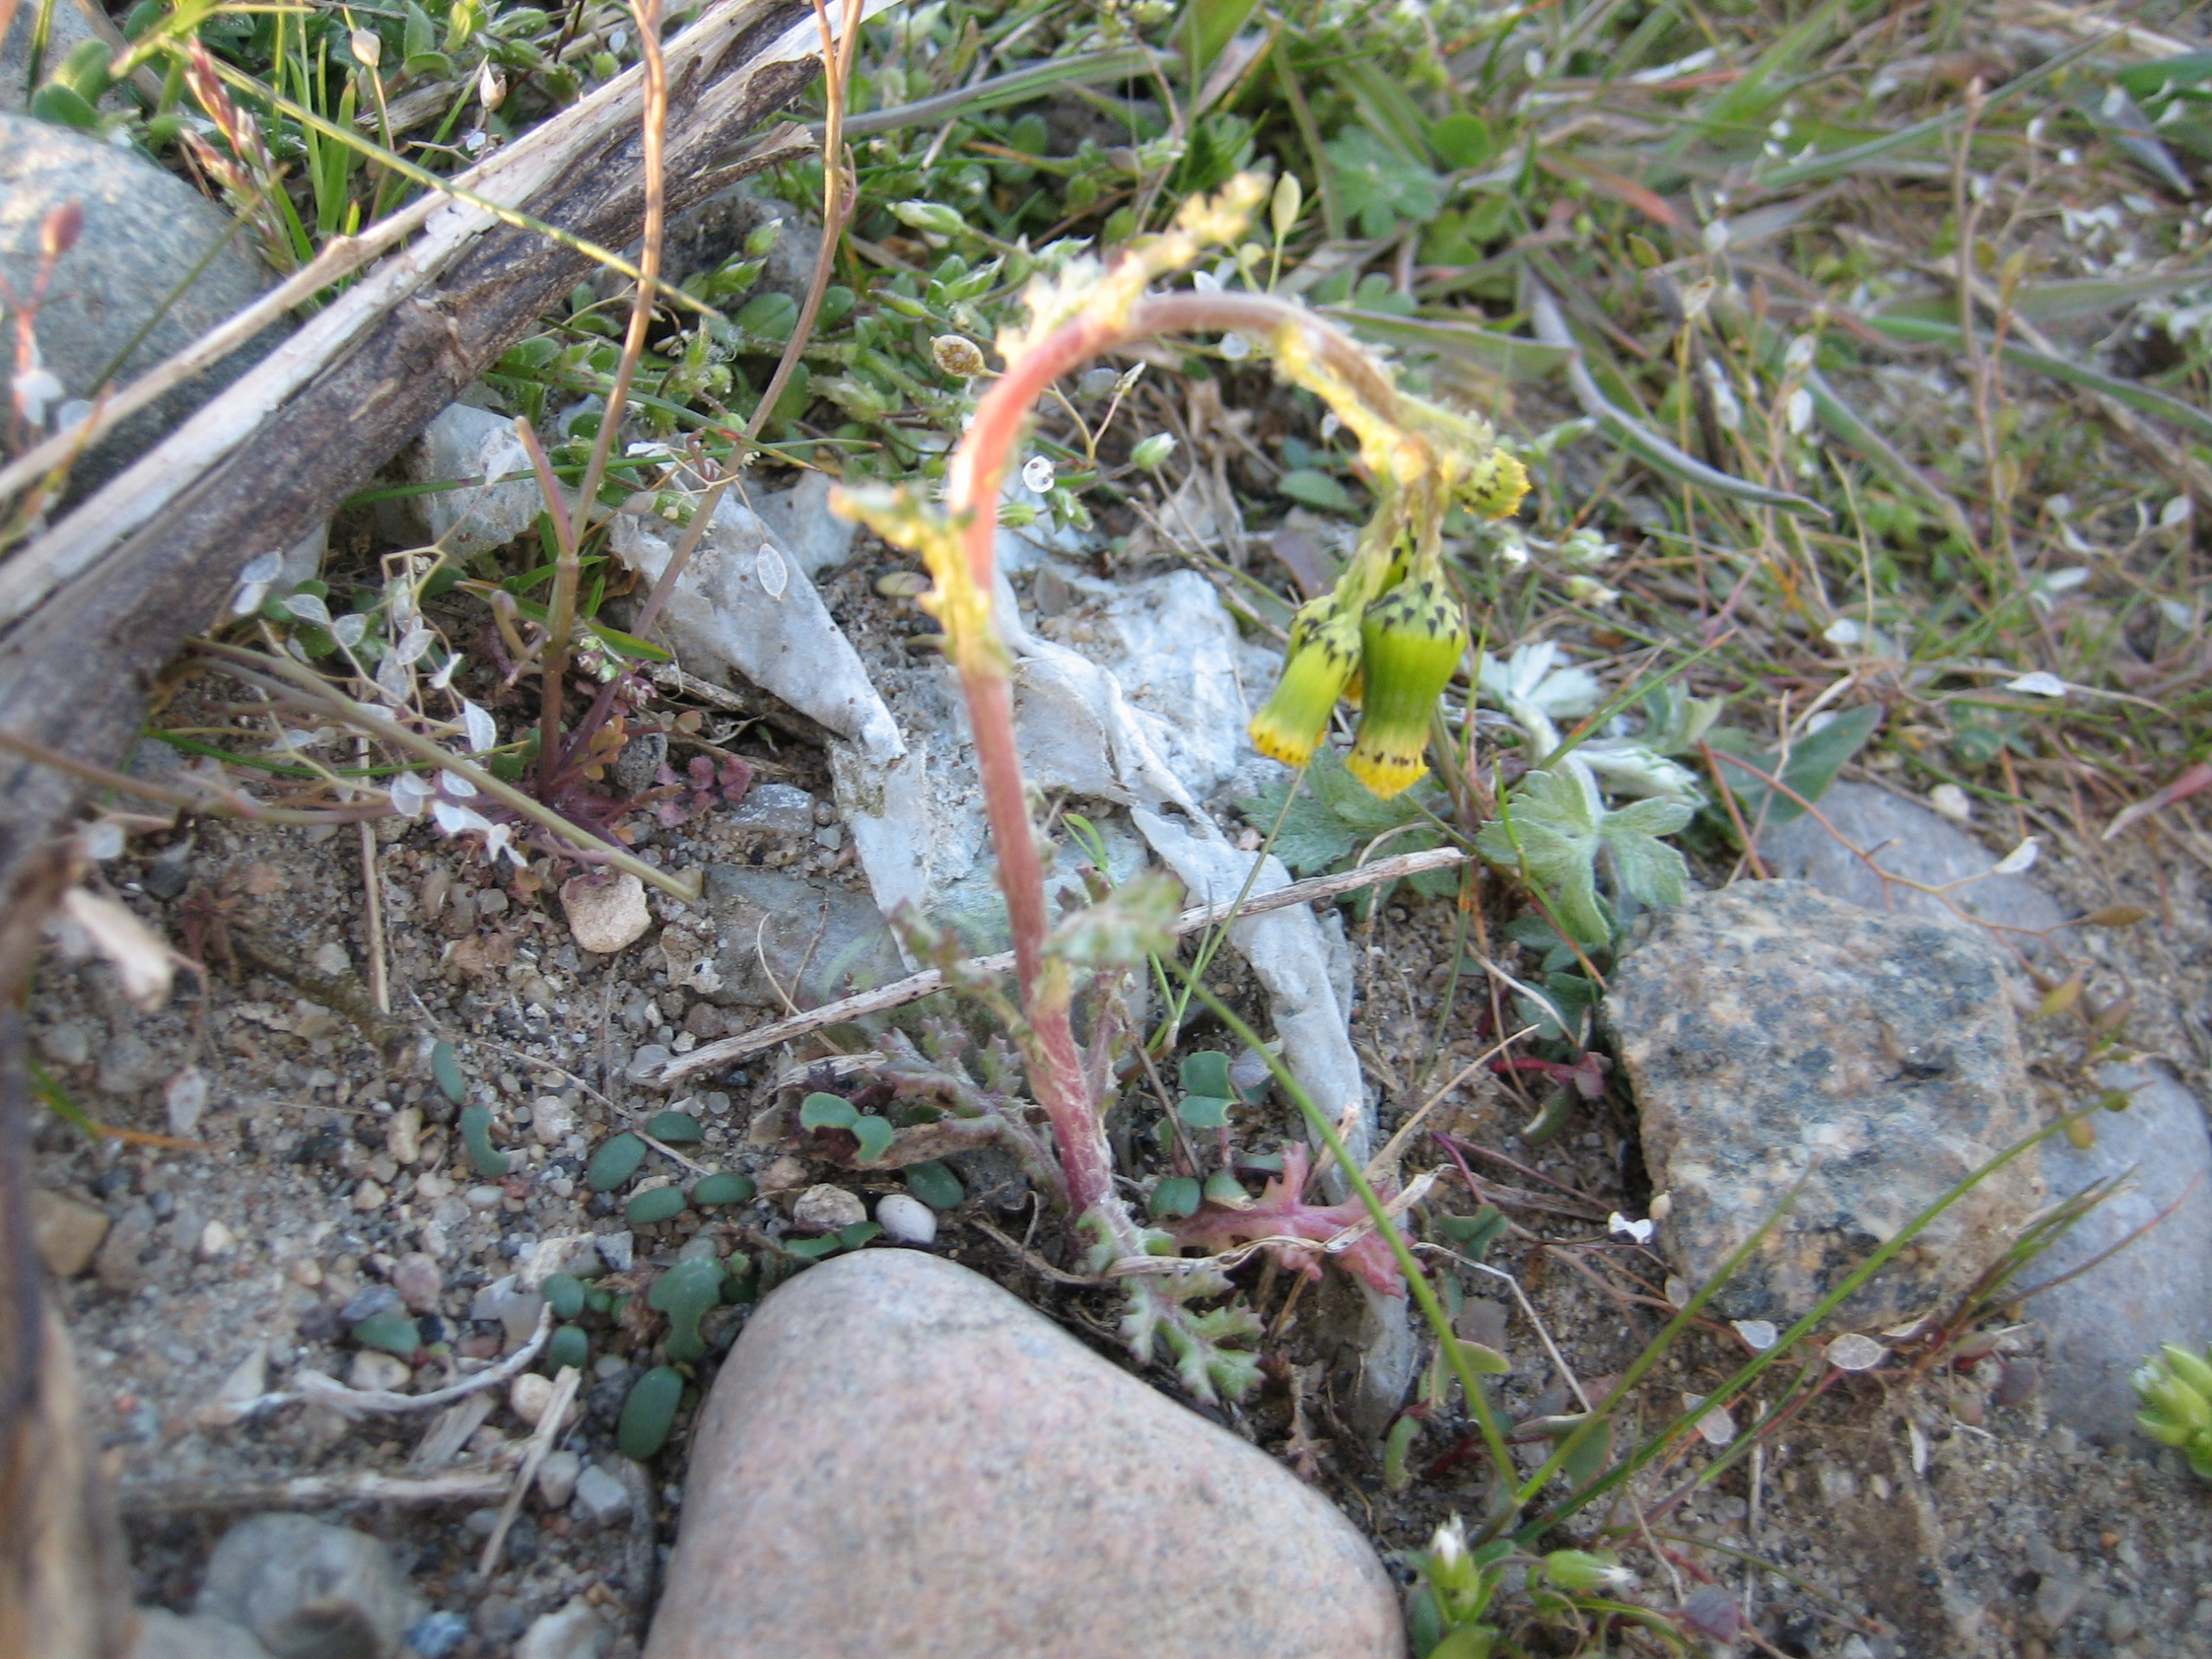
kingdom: Plantae
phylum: Tracheophyta
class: Magnoliopsida
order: Asterales
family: Asteraceae
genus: Senecio
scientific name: Senecio vulgaris
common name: Almindelig brandbæger
